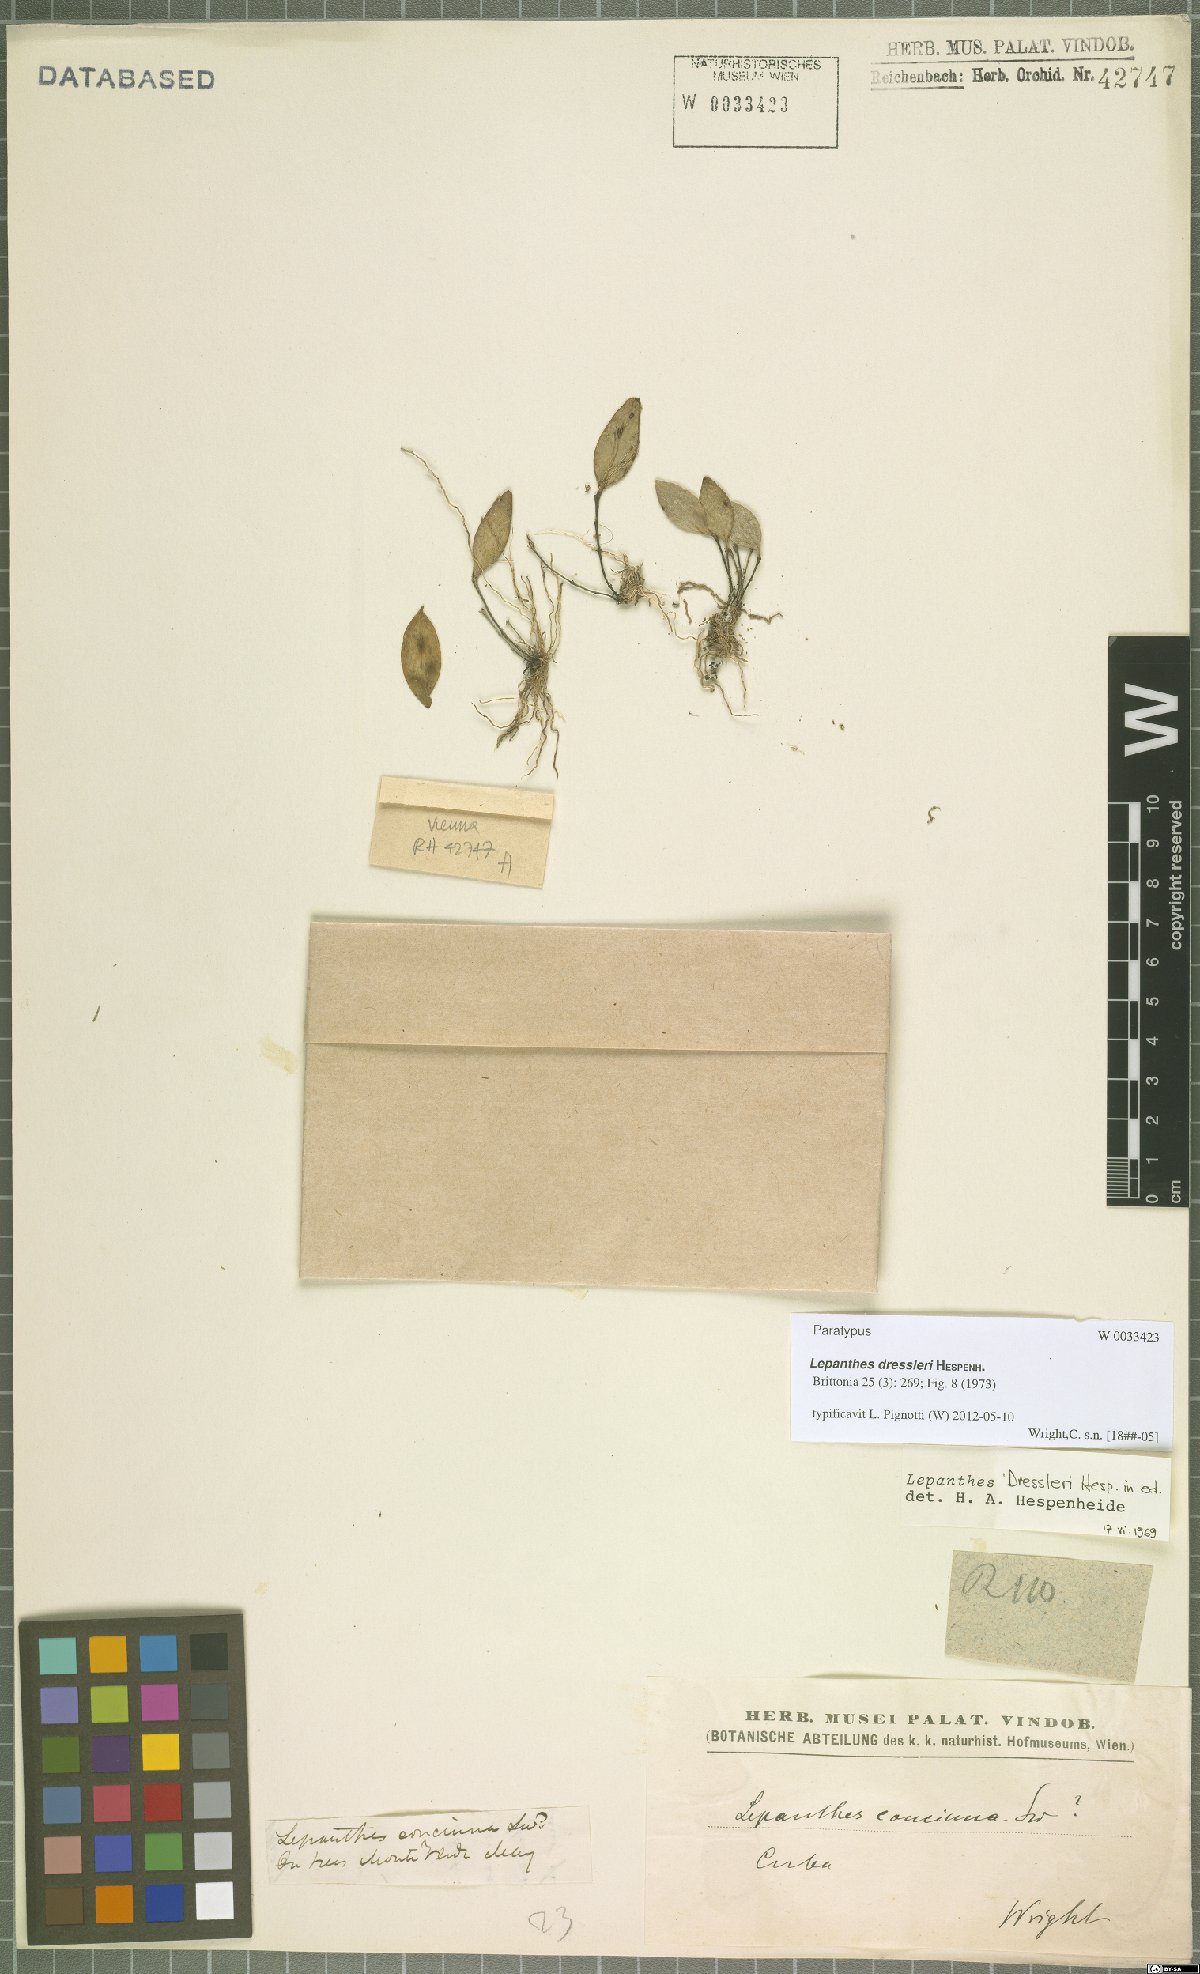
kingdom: Plantae
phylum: Tracheophyta
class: Liliopsida
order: Asparagales
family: Orchidaceae
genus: Lepanthes
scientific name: Lepanthes dressleri
